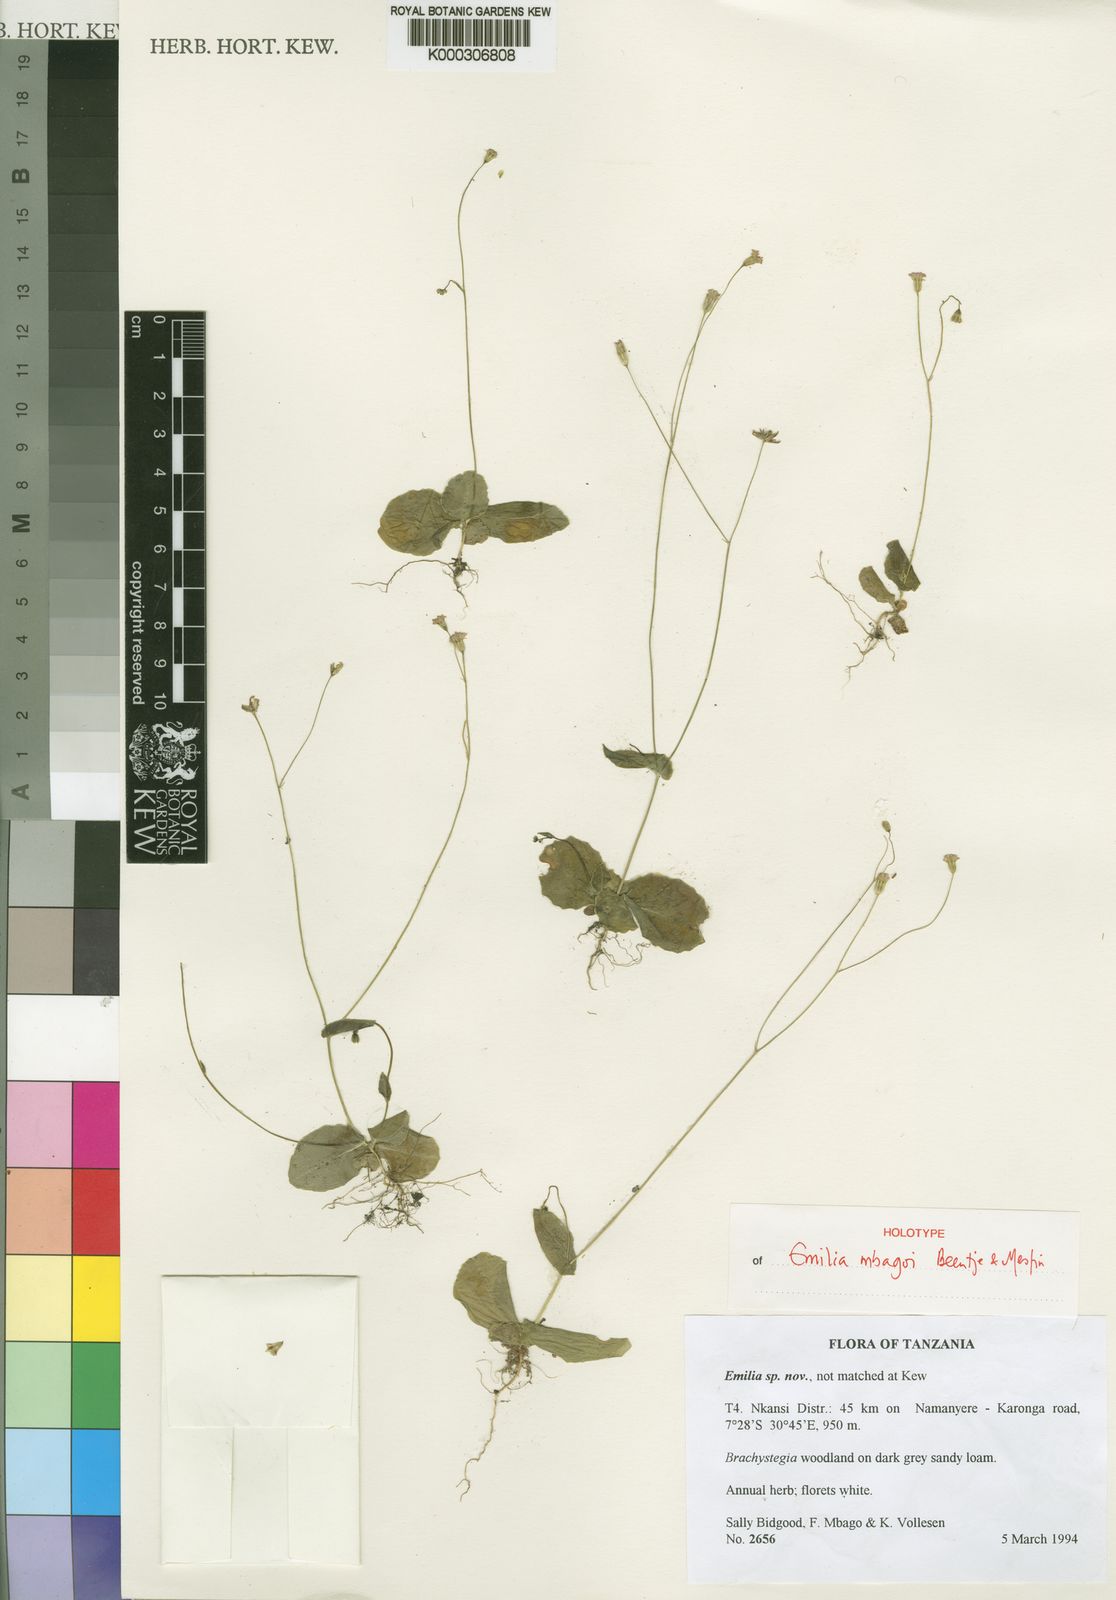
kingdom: Plantae
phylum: Tracheophyta
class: Magnoliopsida
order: Asterales
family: Asteraceae
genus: Emilia
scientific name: Emilia mbagoi
